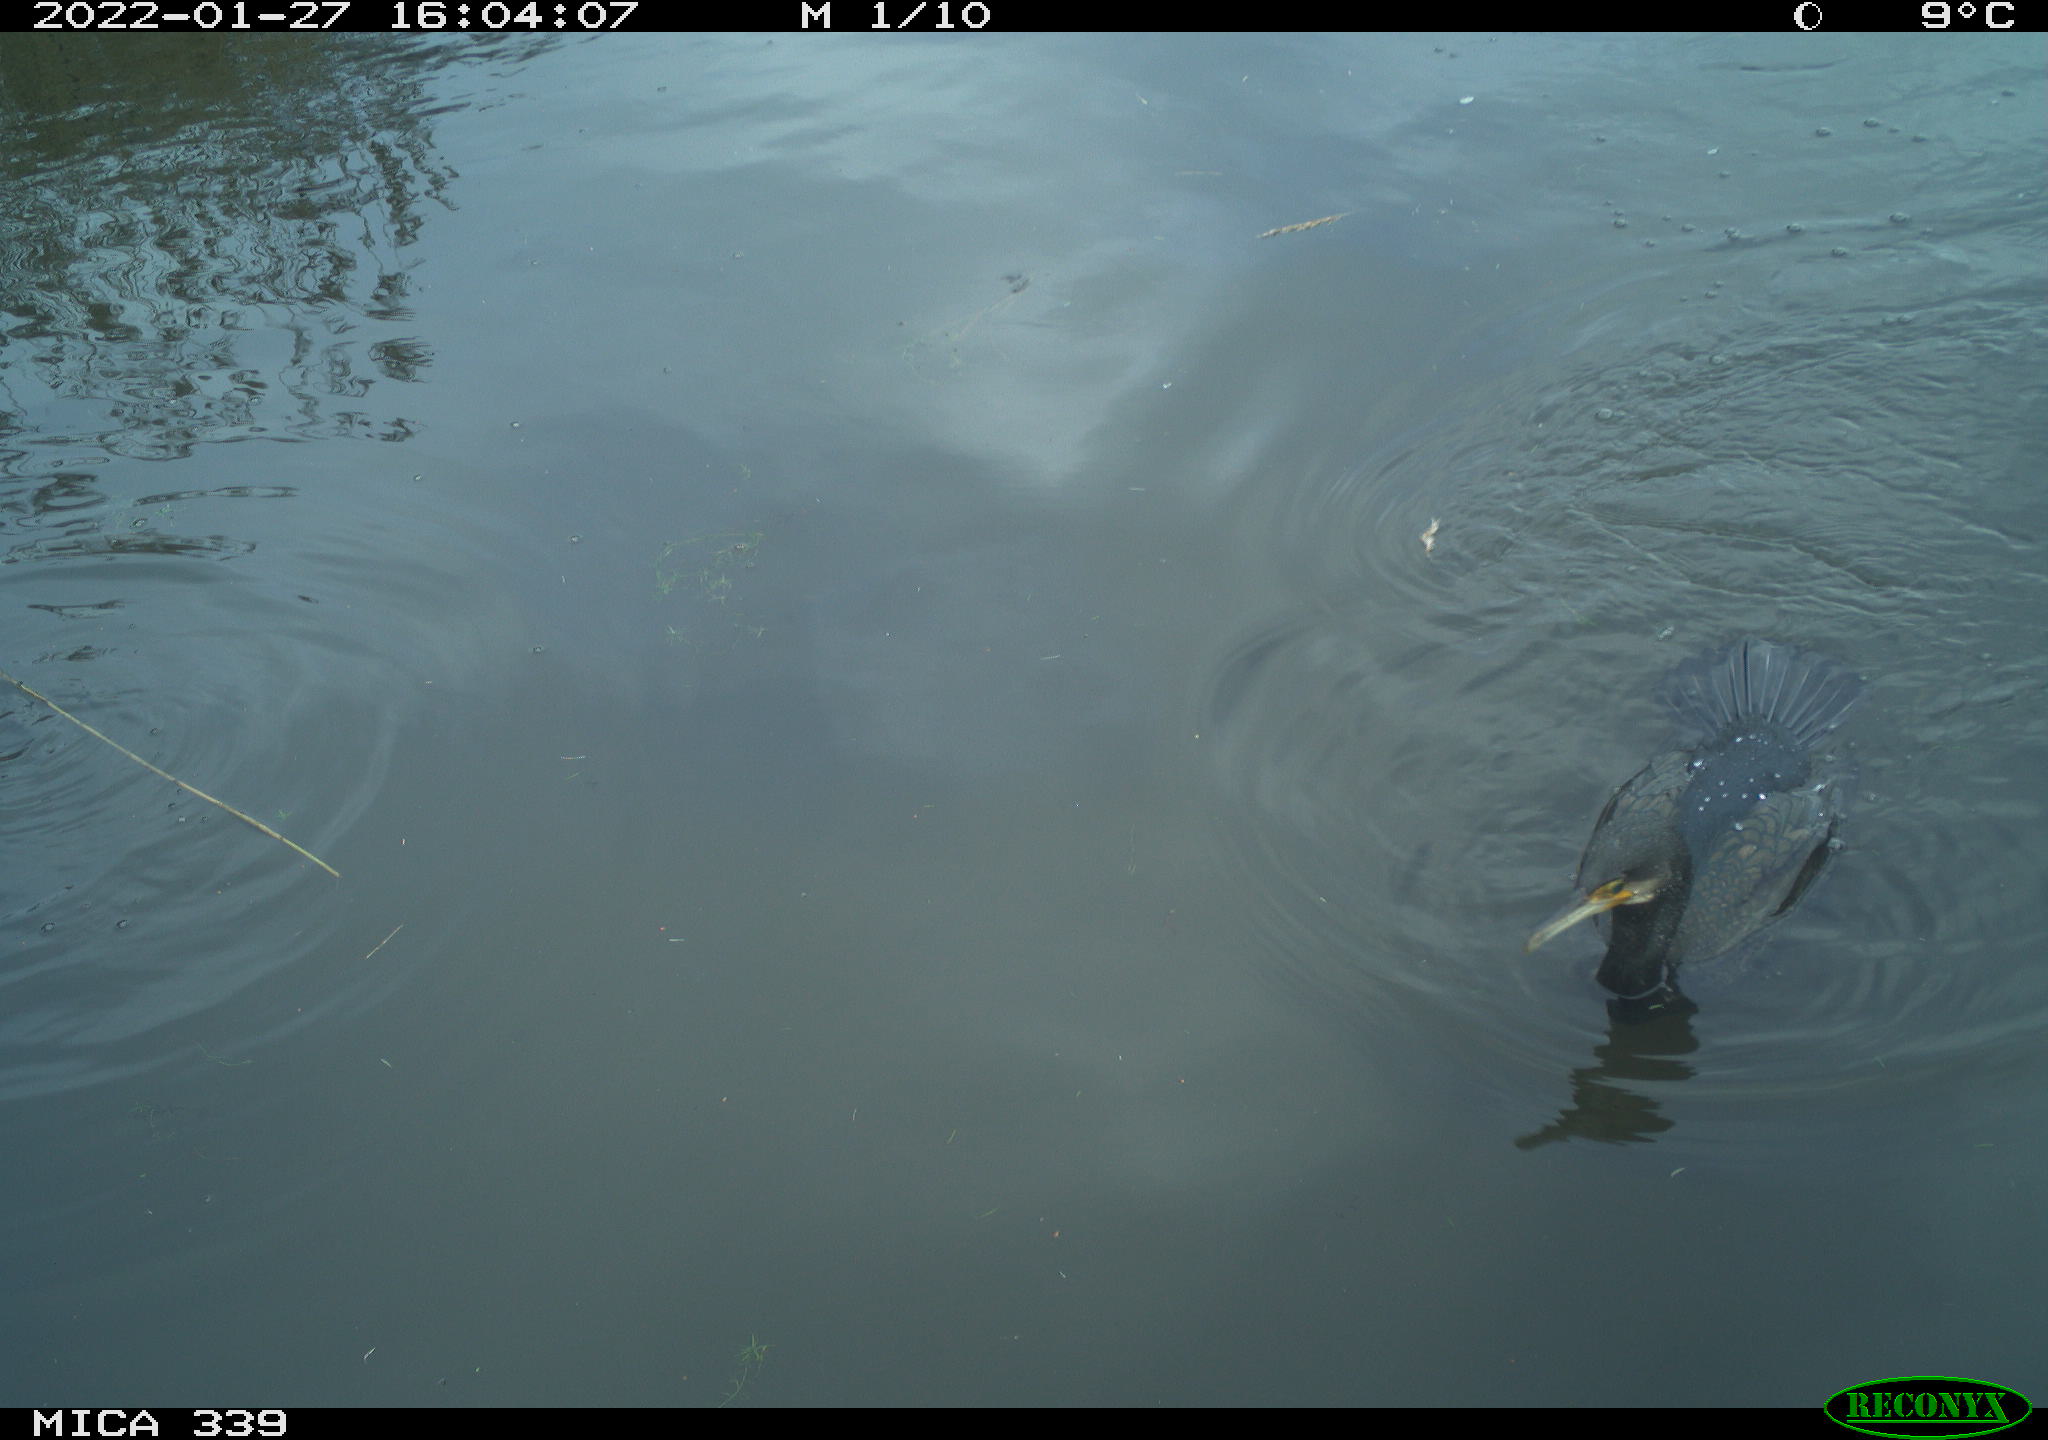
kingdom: Animalia
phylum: Chordata
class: Aves
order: Anseriformes
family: Anatidae
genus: Anas
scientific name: Anas platyrhynchos
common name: Mallard
